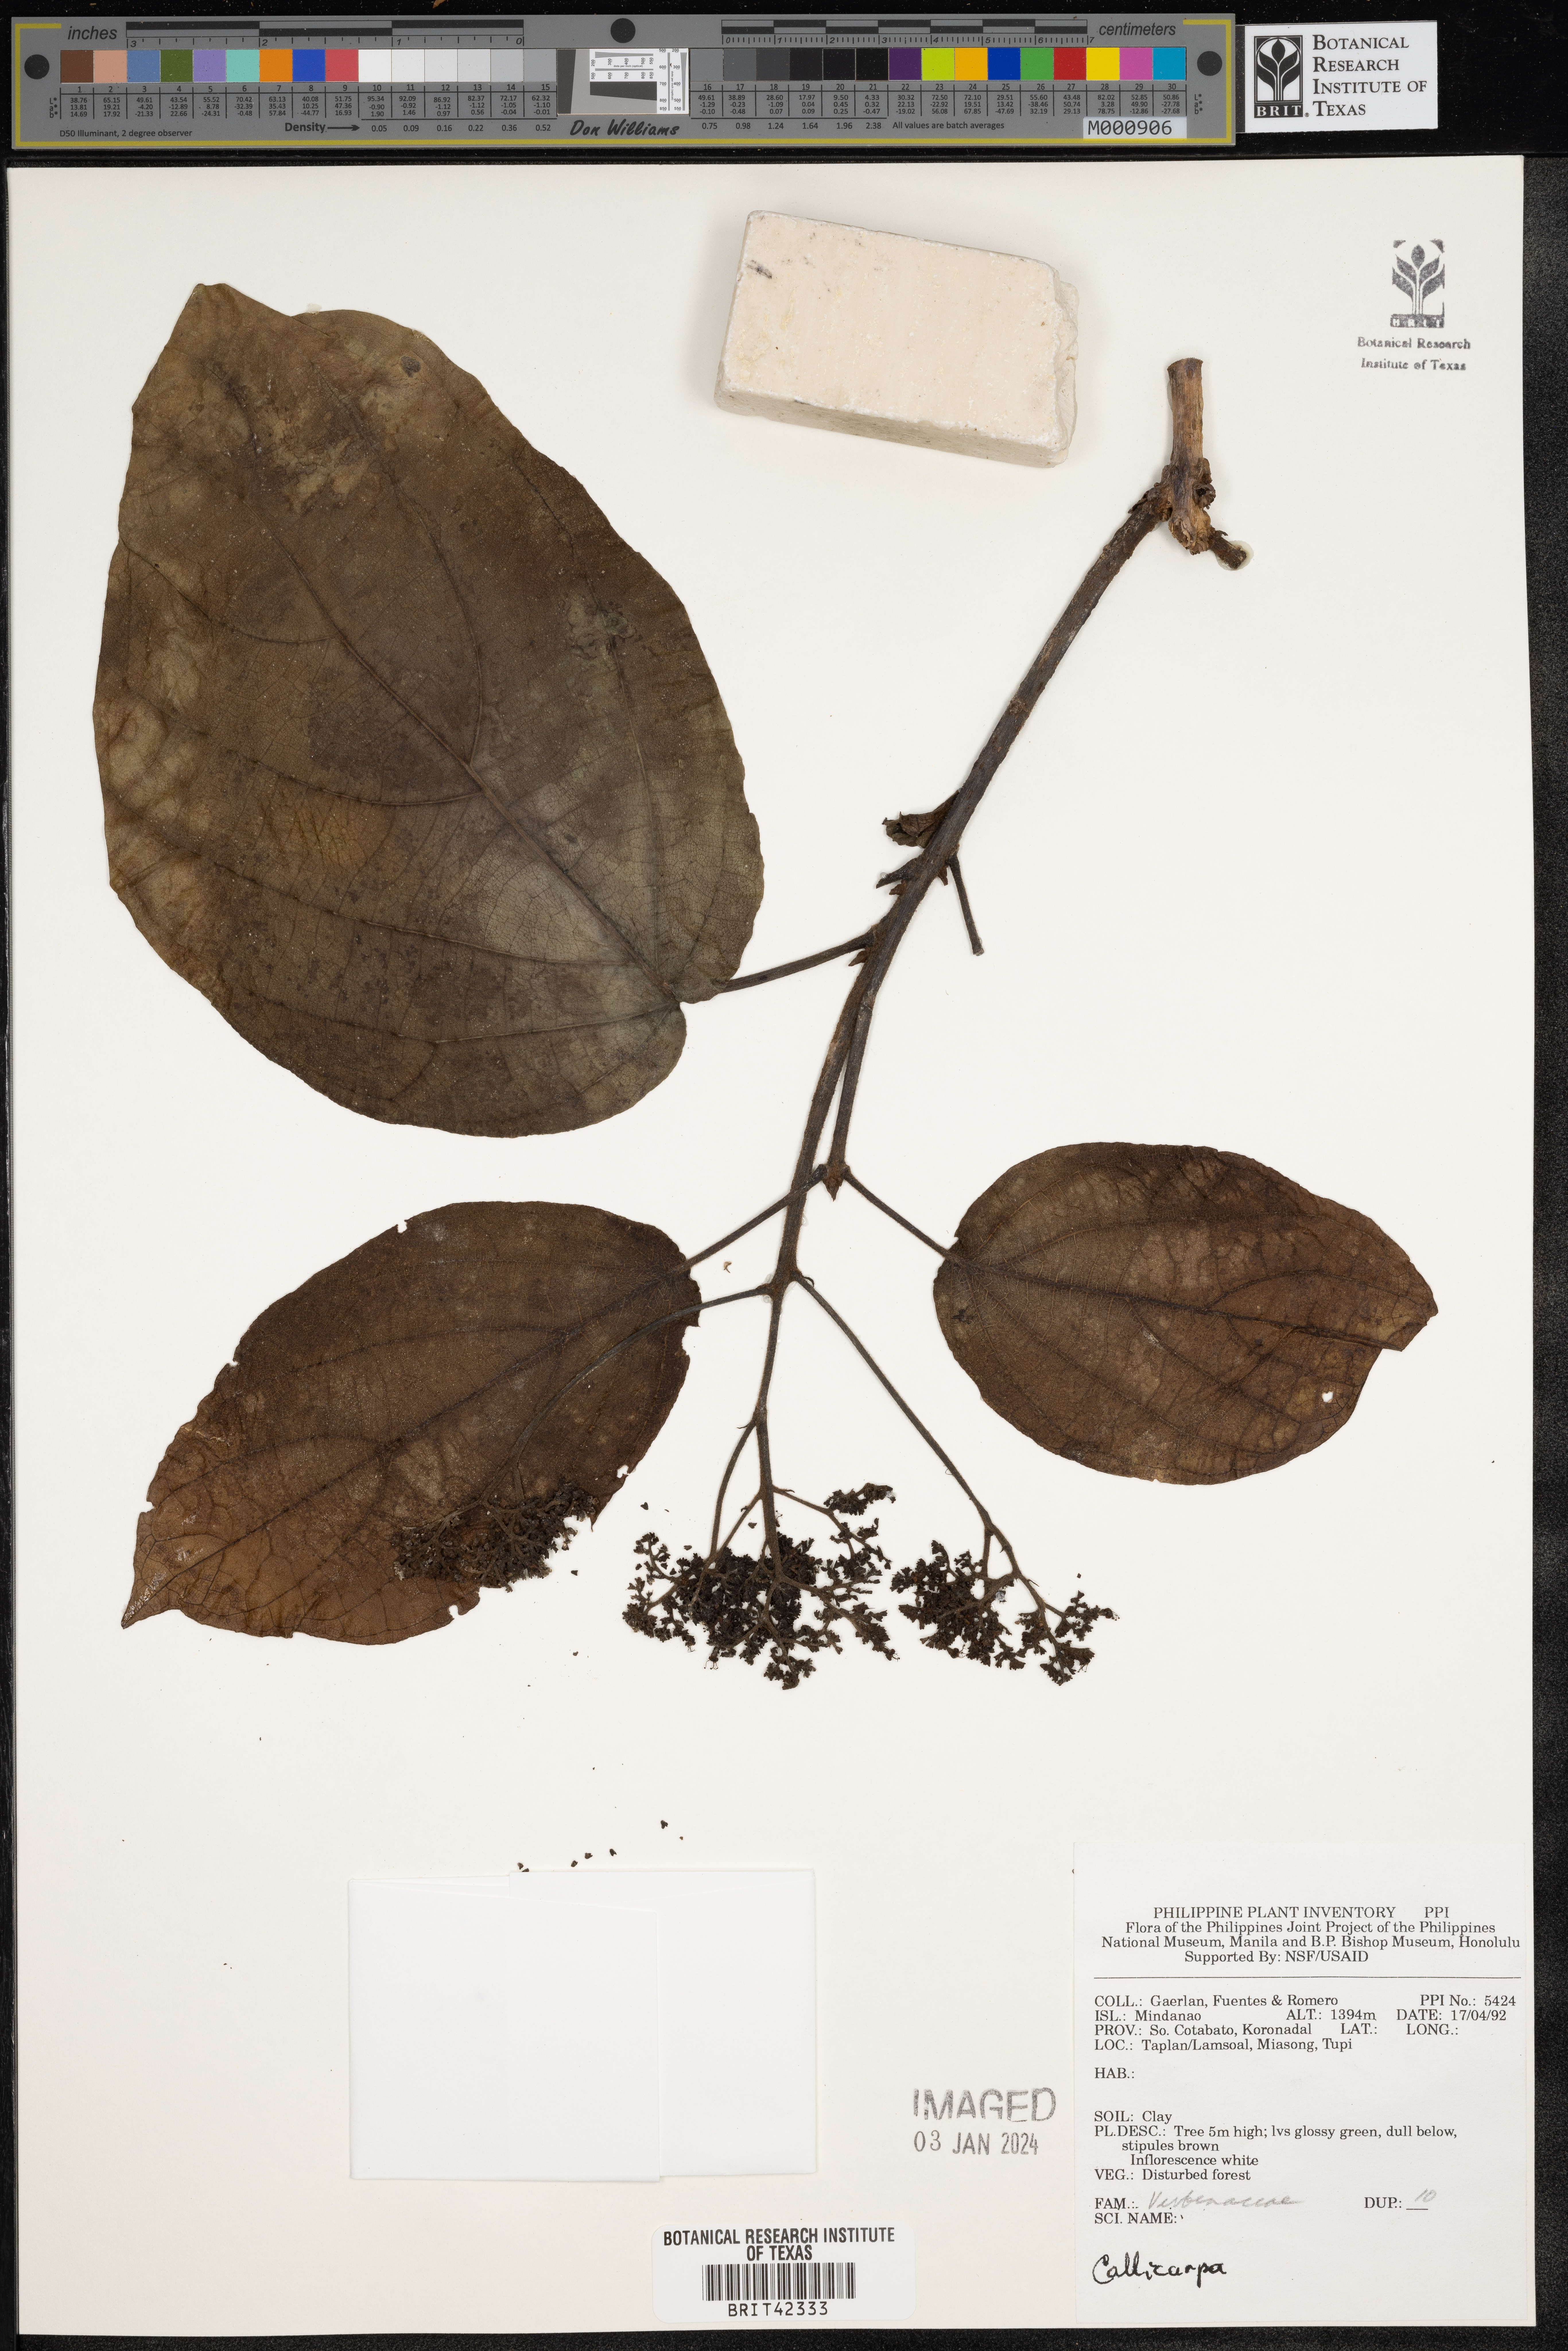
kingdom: Plantae
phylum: Tracheophyta
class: Magnoliopsida
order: Lamiales
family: Lamiaceae
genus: Callicarpa
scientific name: Callicarpa
